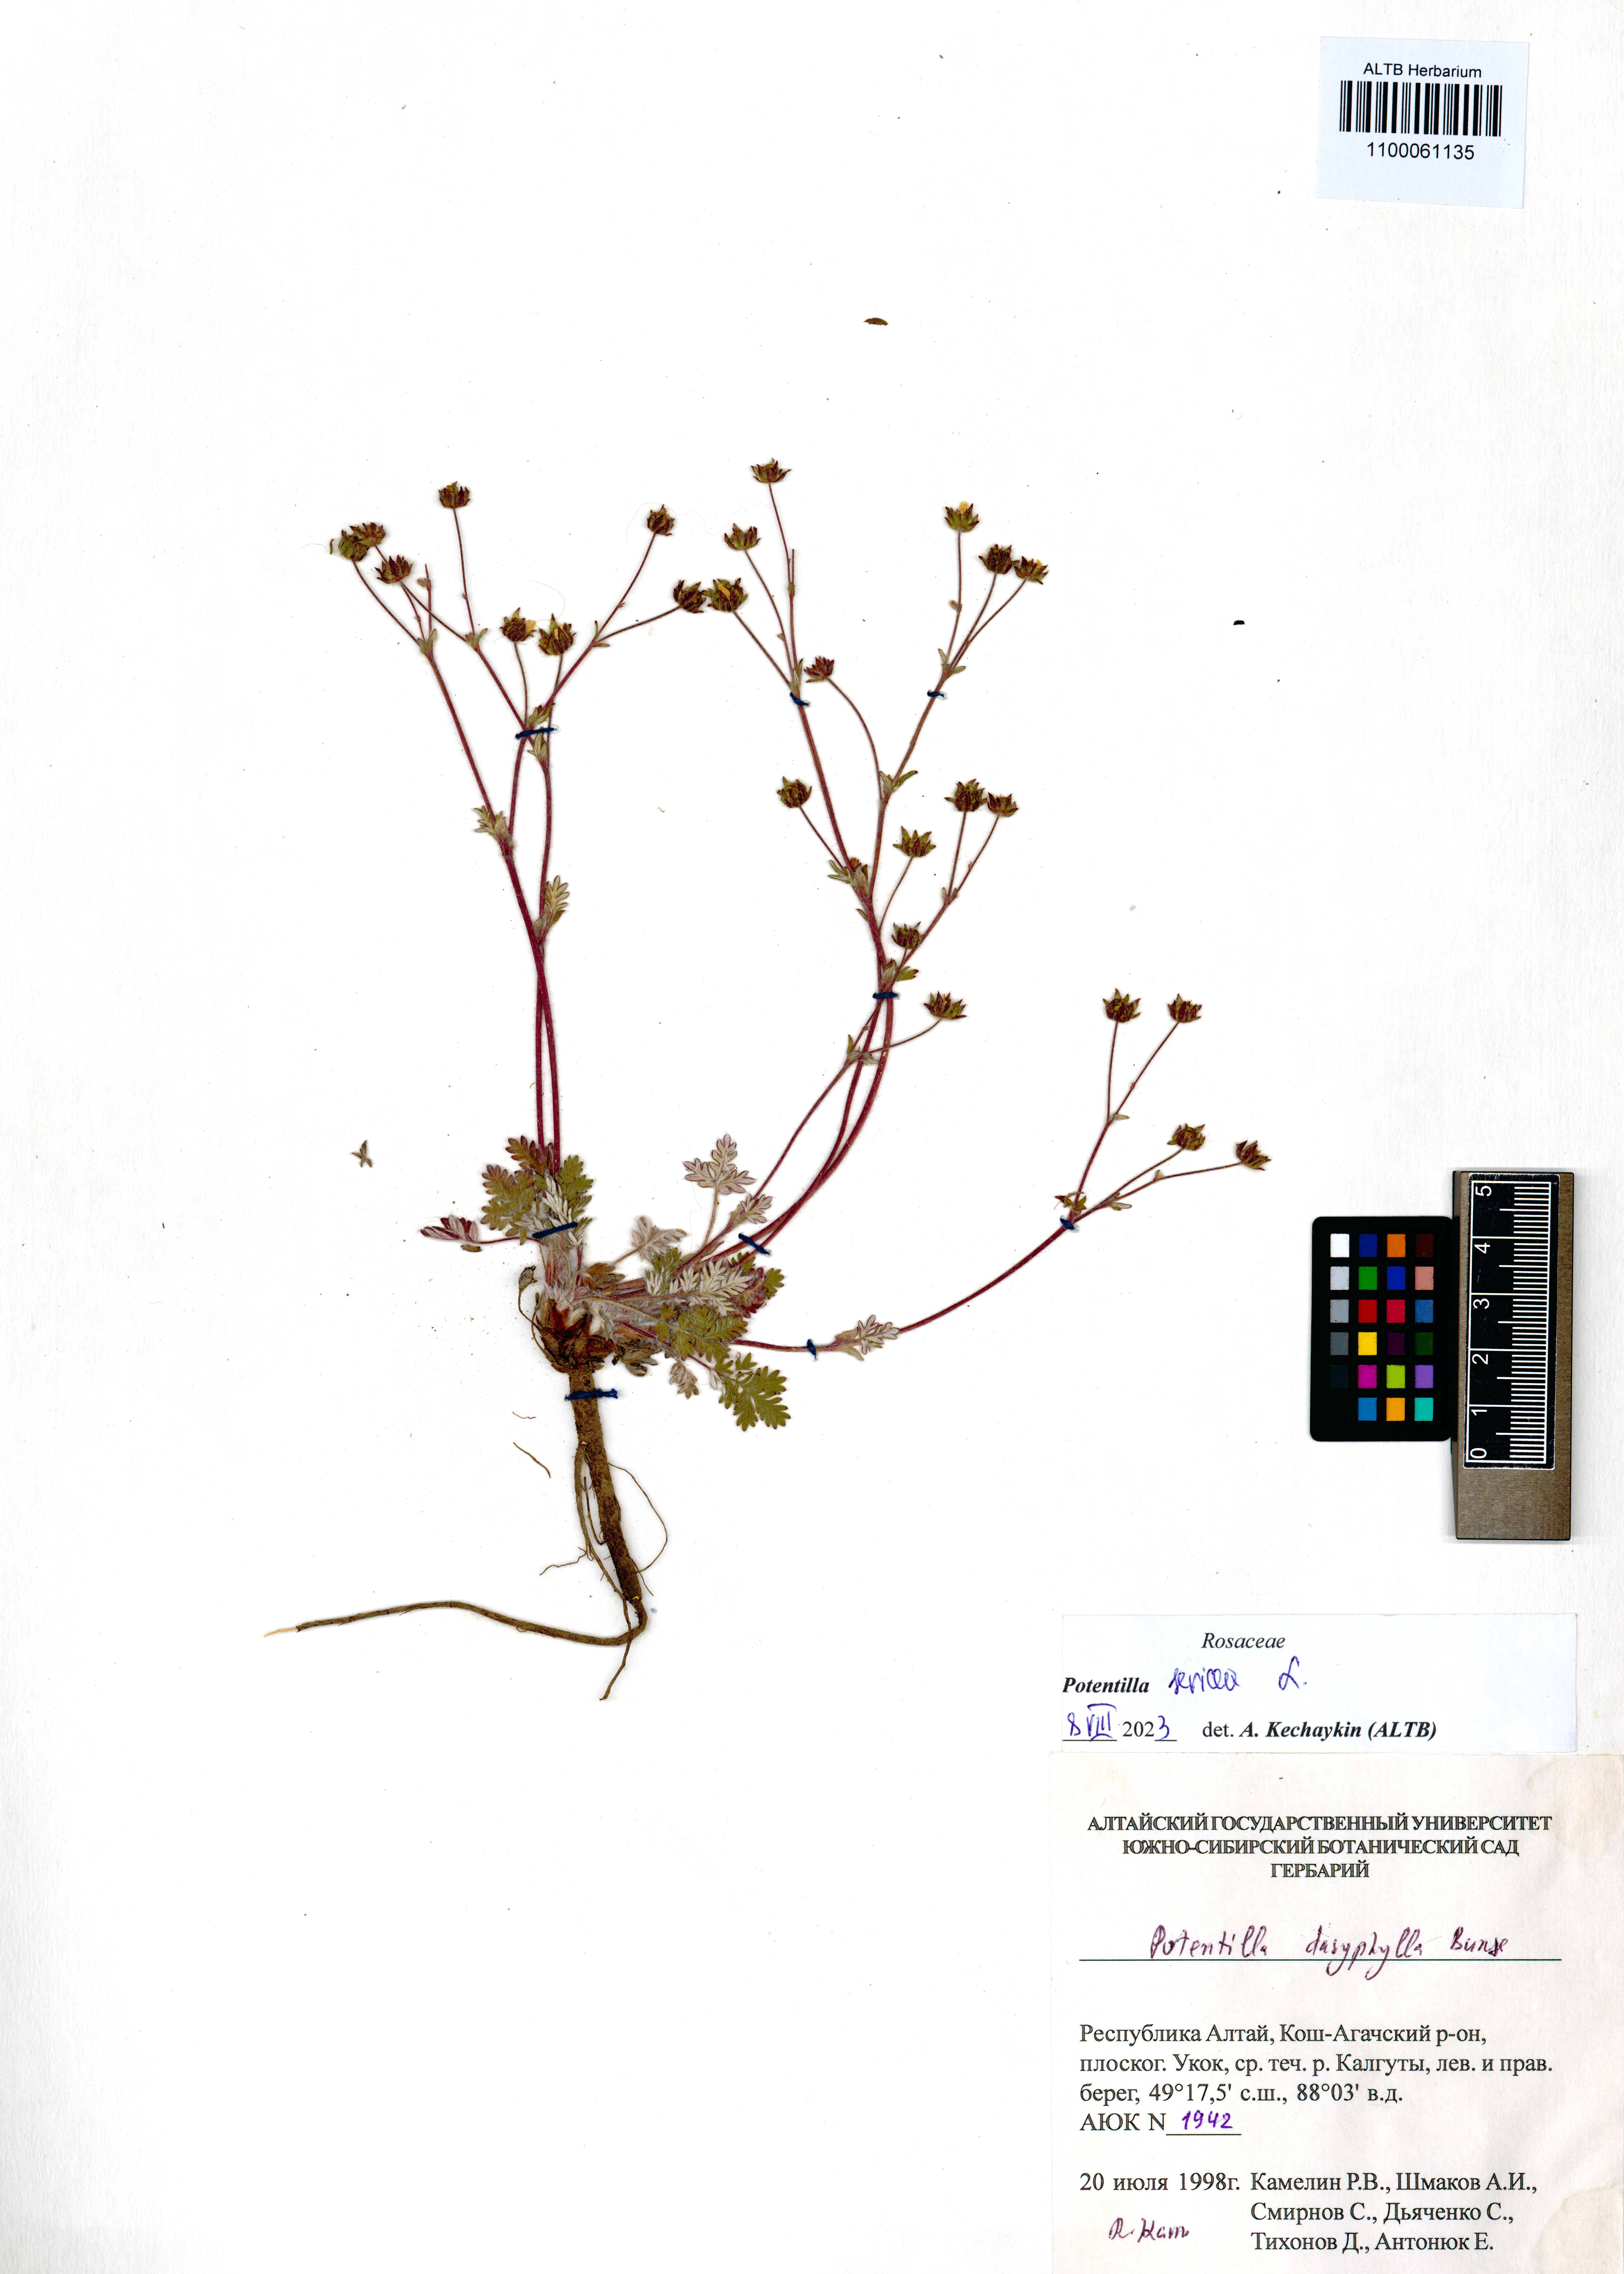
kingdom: Plantae
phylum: Tracheophyta
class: Magnoliopsida
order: Rosales
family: Rosaceae
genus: Potentilla
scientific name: Potentilla sericea
